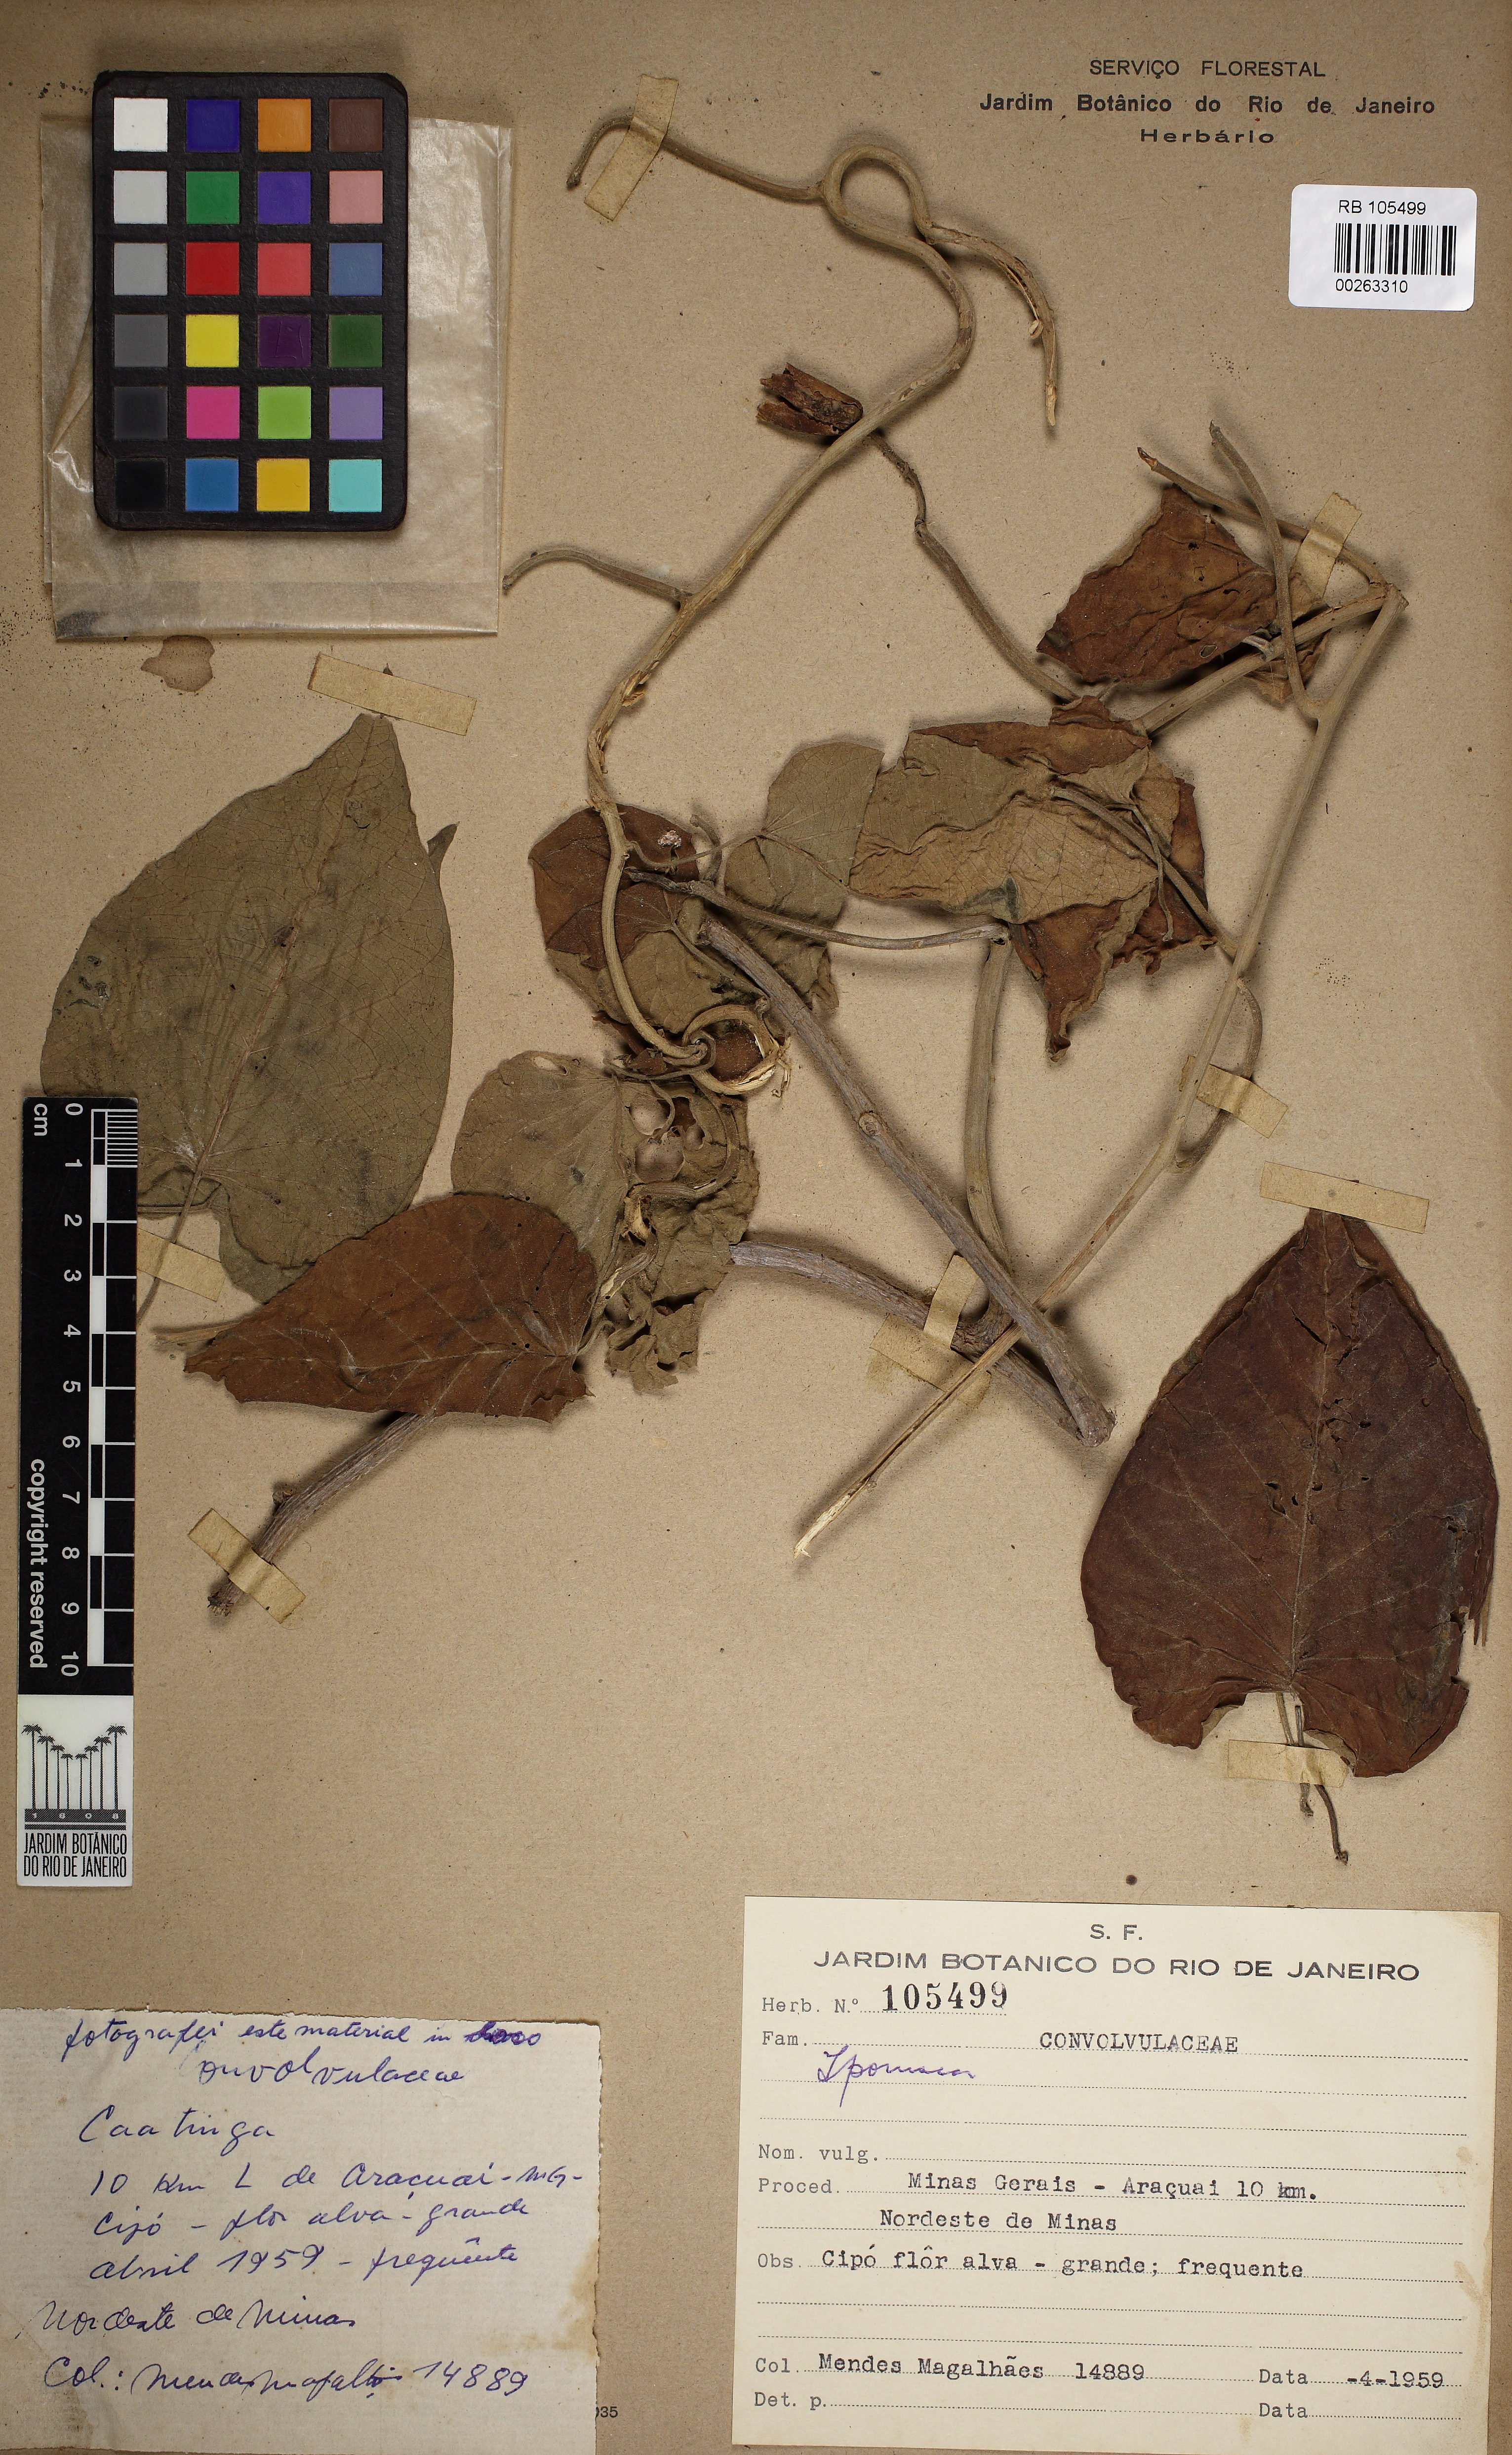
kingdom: Plantae
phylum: Tracheophyta
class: Magnoliopsida
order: Solanales
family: Convolvulaceae
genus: Ipomoea
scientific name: Ipomoea
